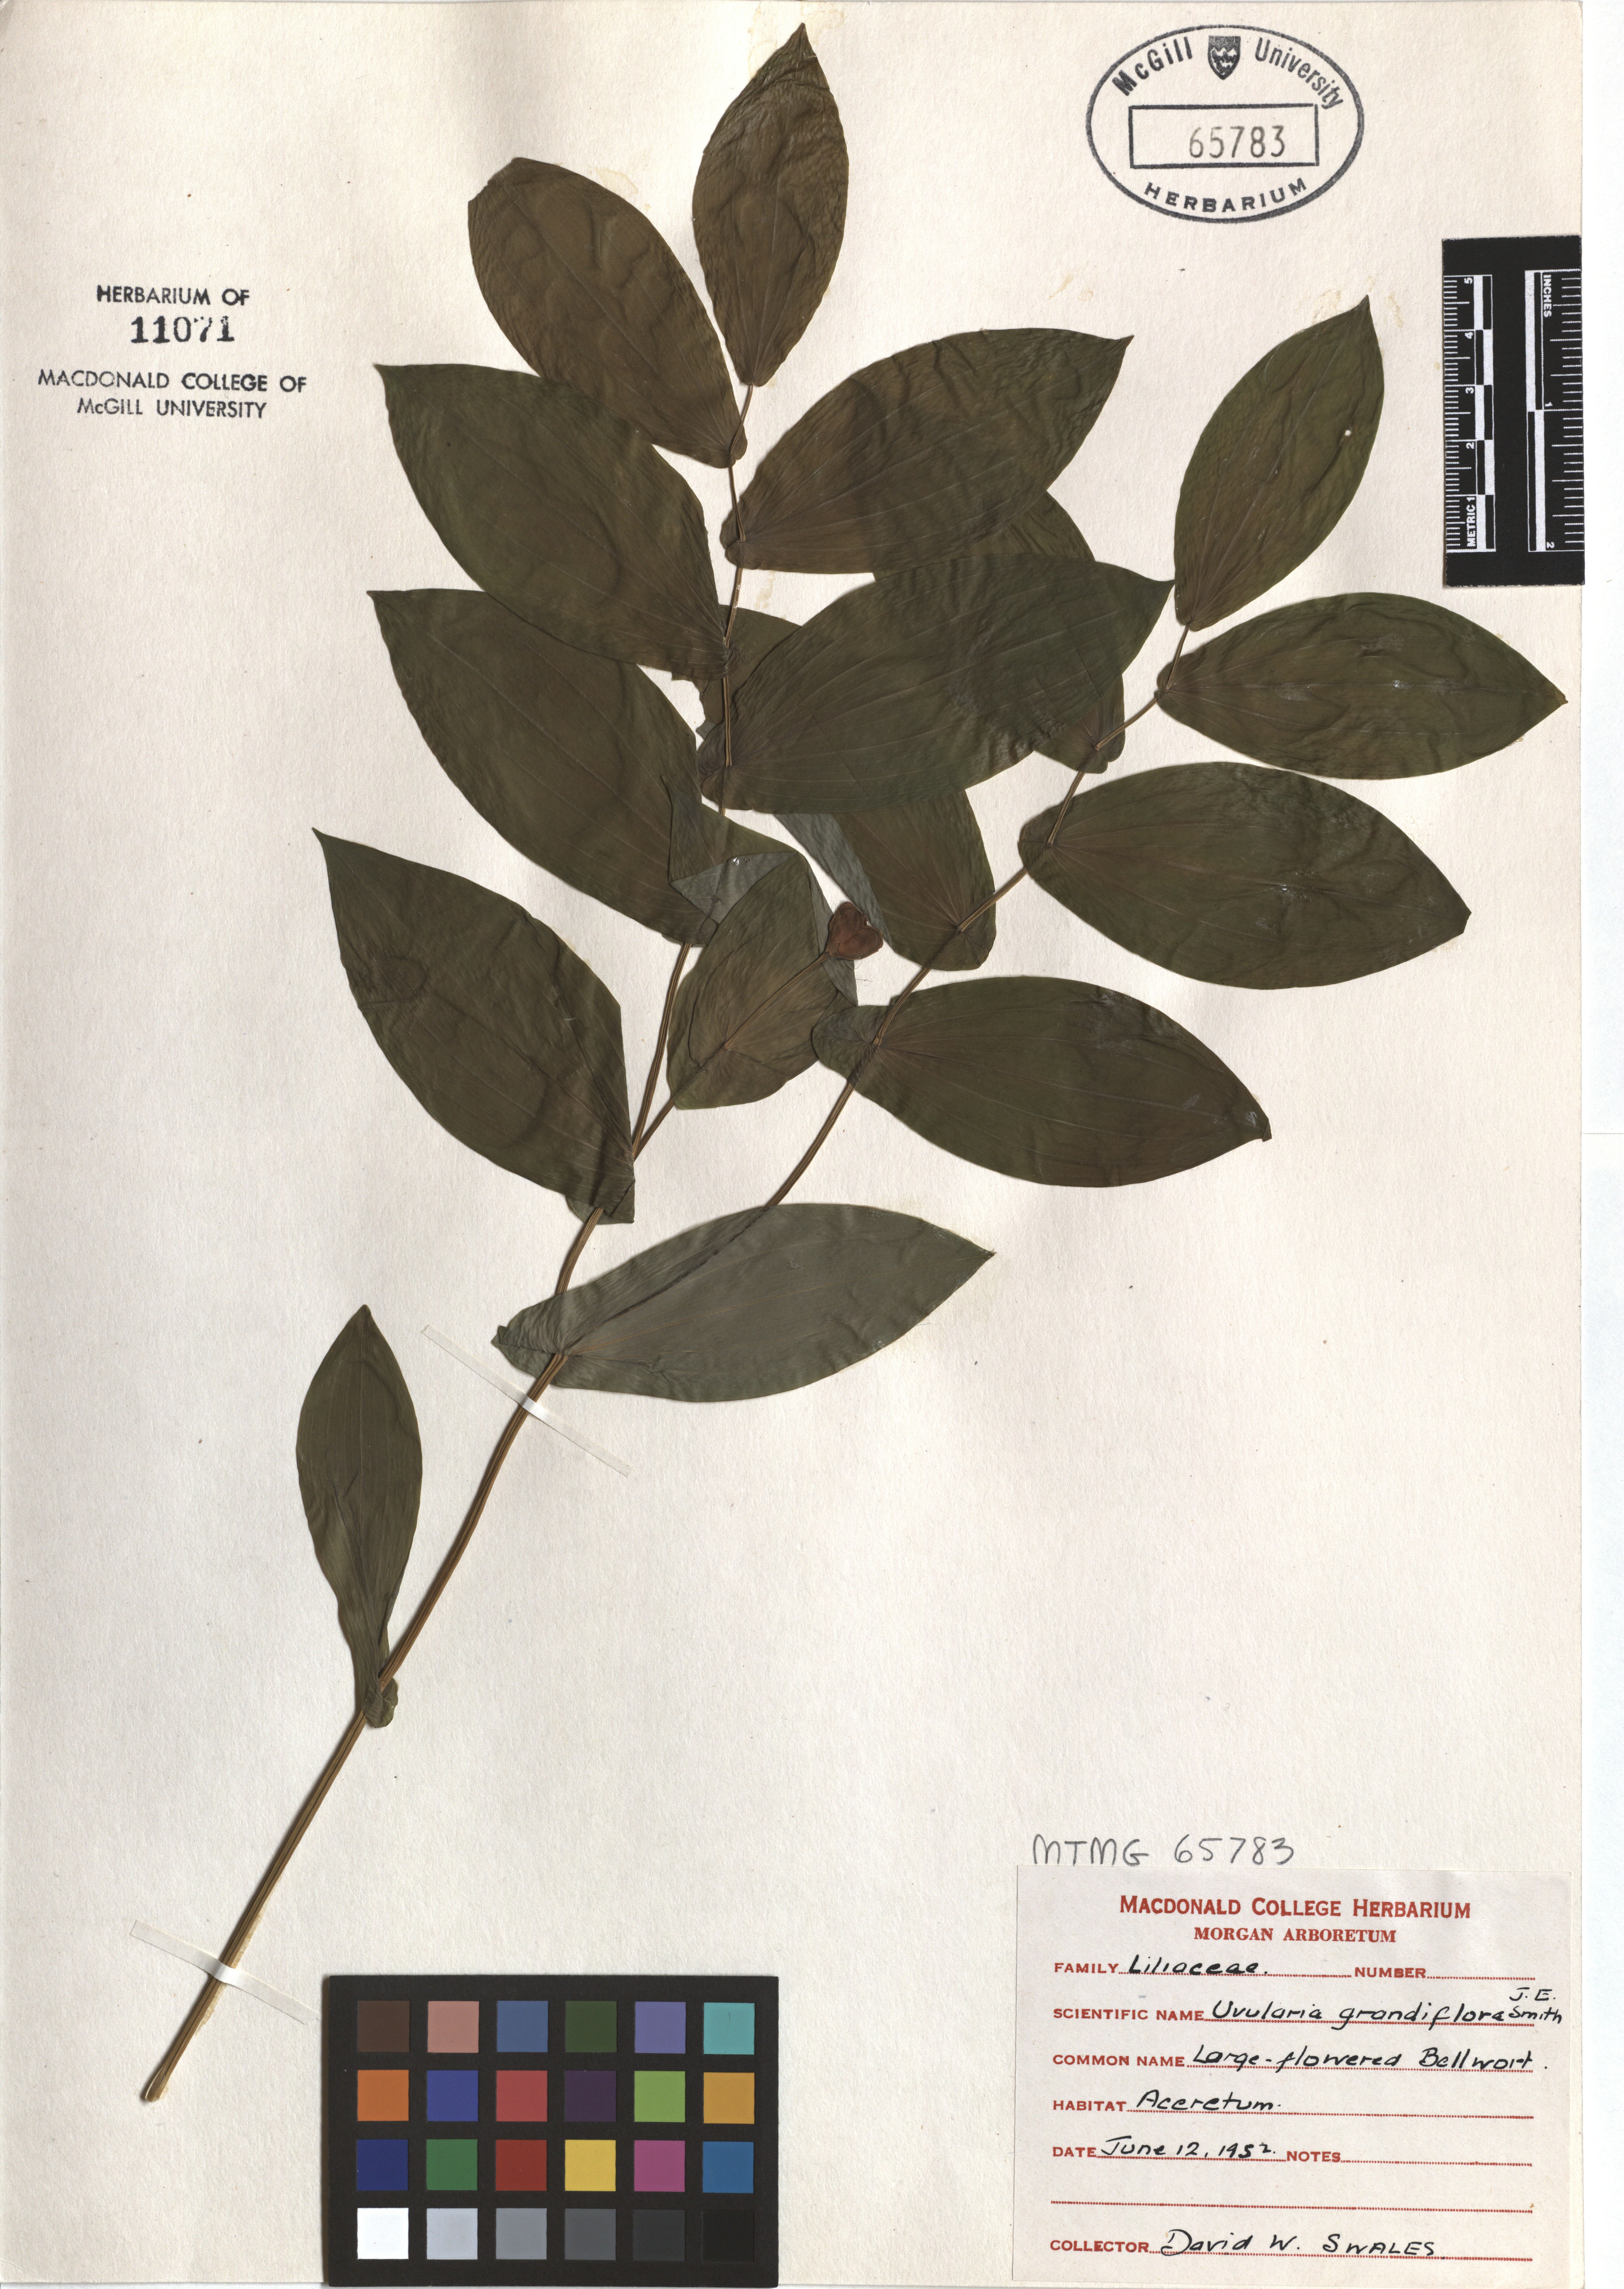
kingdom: Plantae
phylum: Tracheophyta
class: Liliopsida
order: Liliales
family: Colchicaceae
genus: Uvularia
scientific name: Uvularia grandiflora
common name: Bellwort
